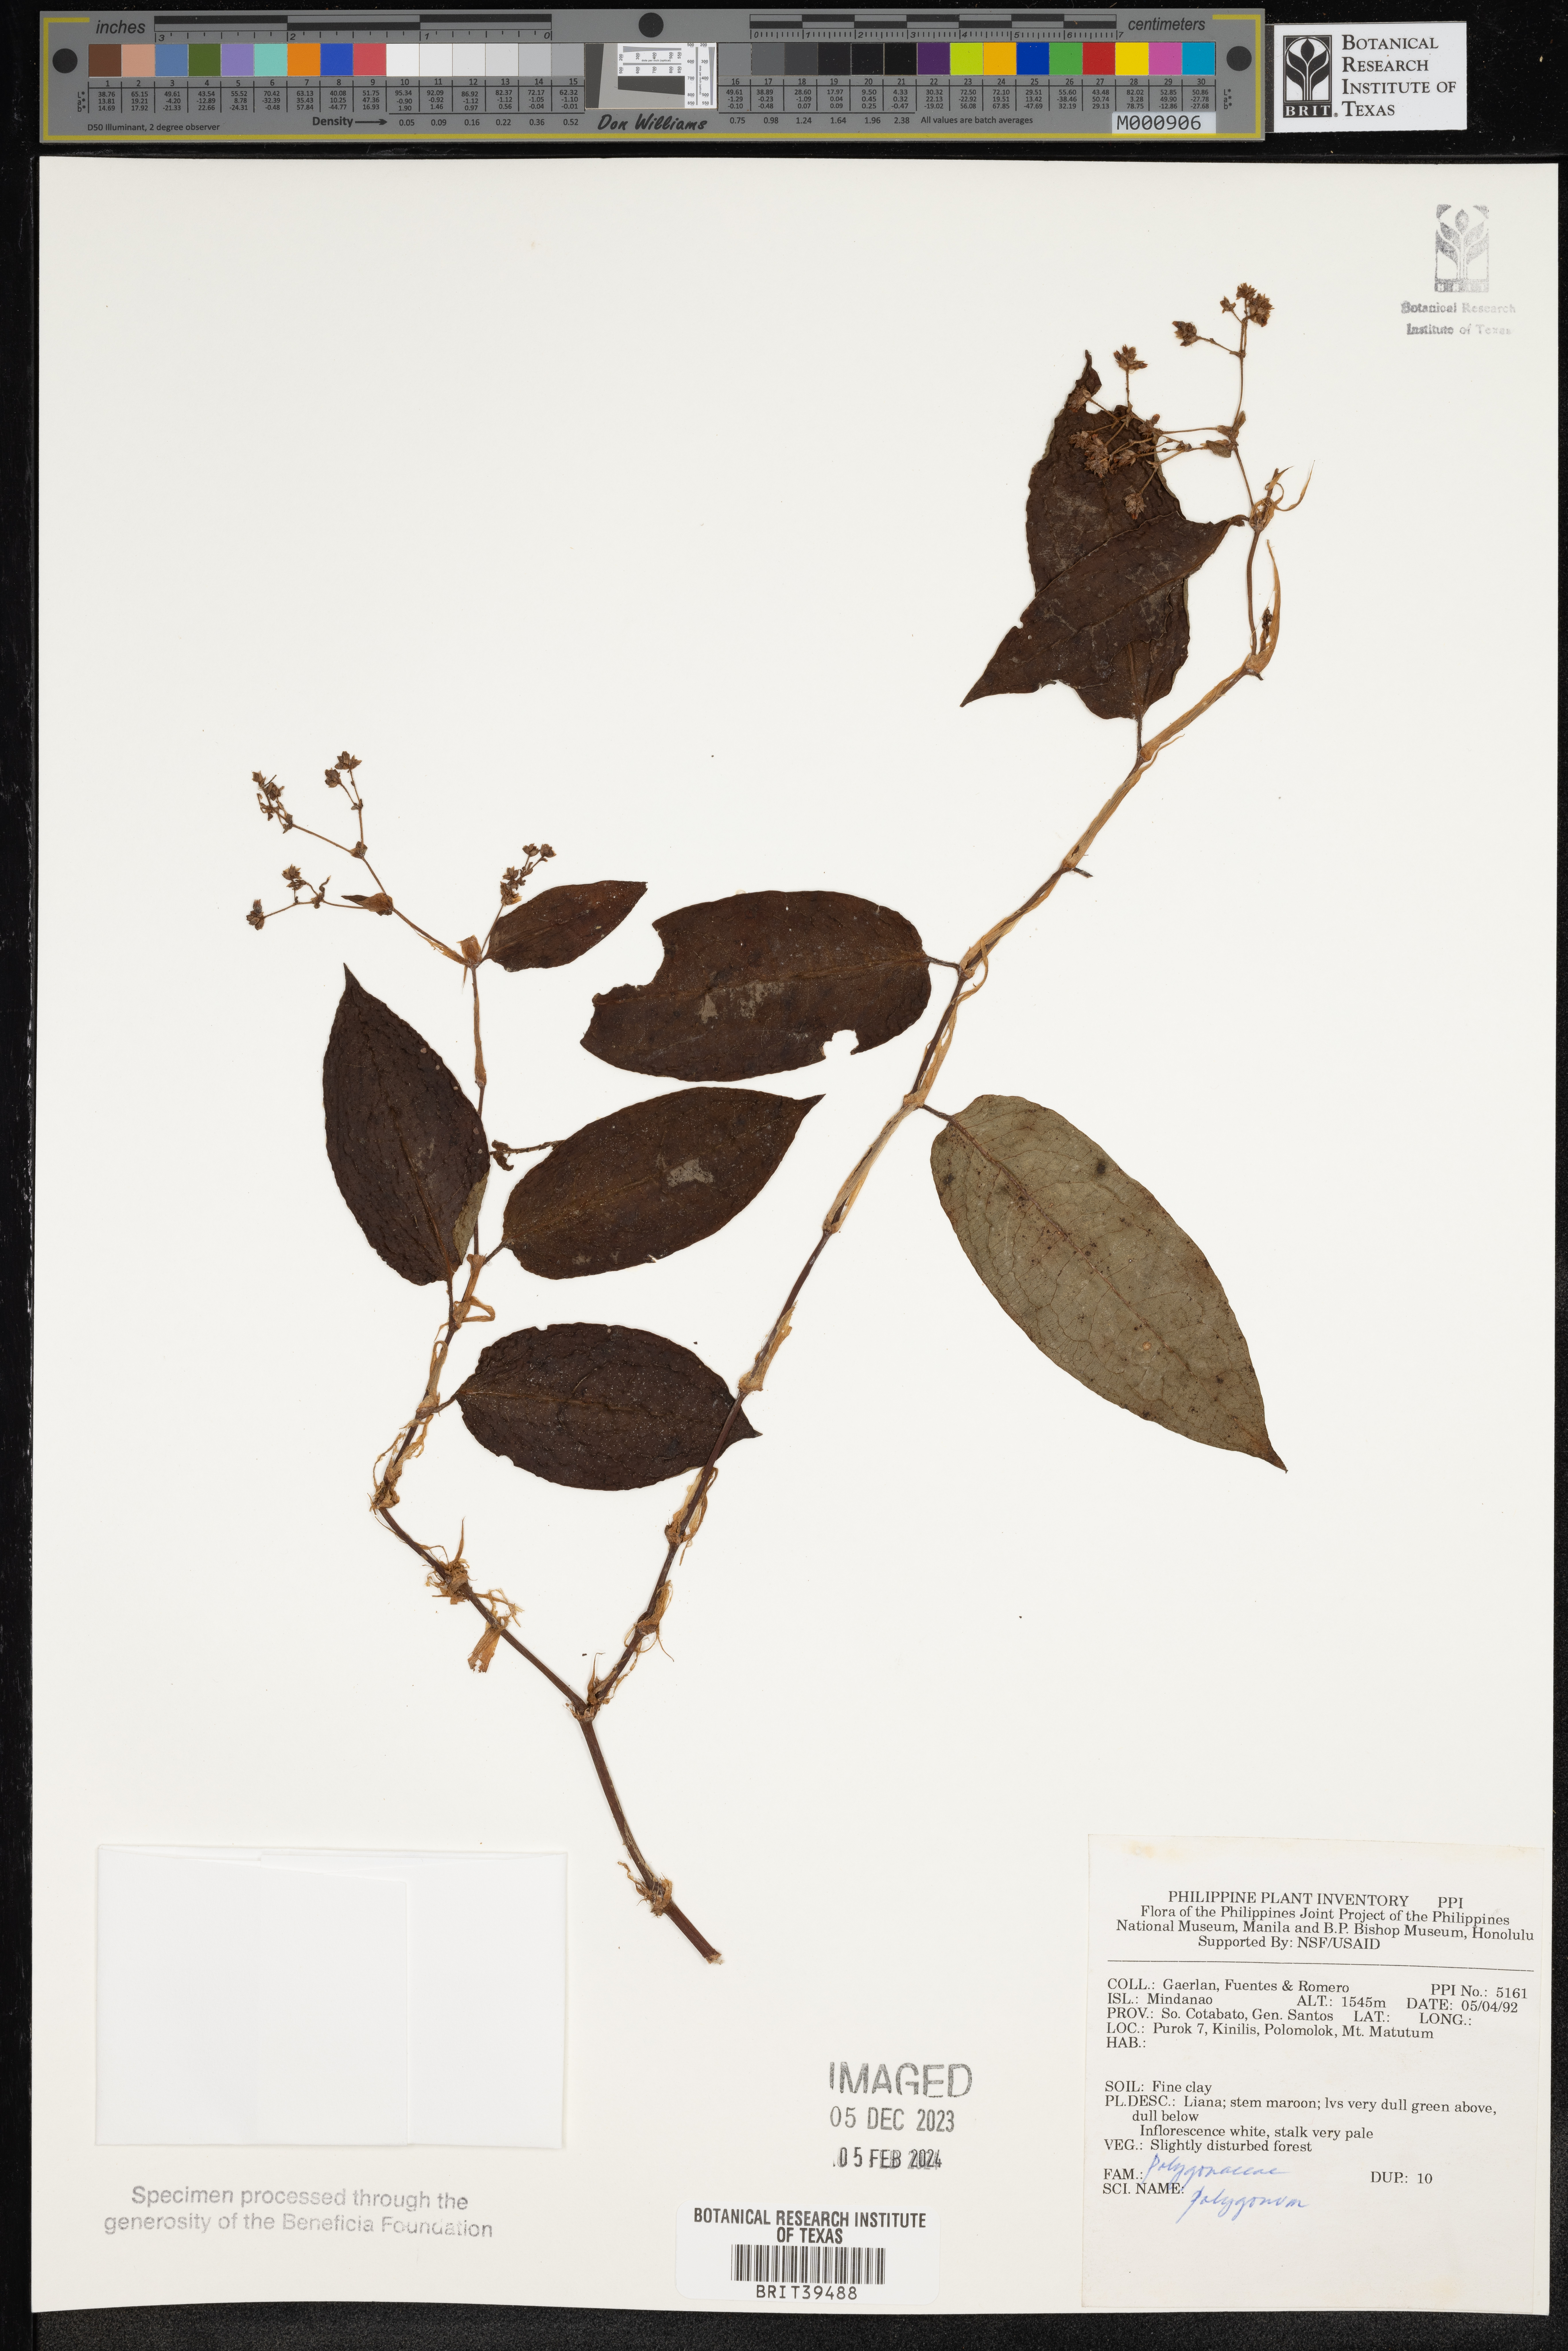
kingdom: Plantae
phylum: Tracheophyta
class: Magnoliopsida
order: Caryophyllales
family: Polygonaceae
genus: Polygonum
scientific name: Polygonum
